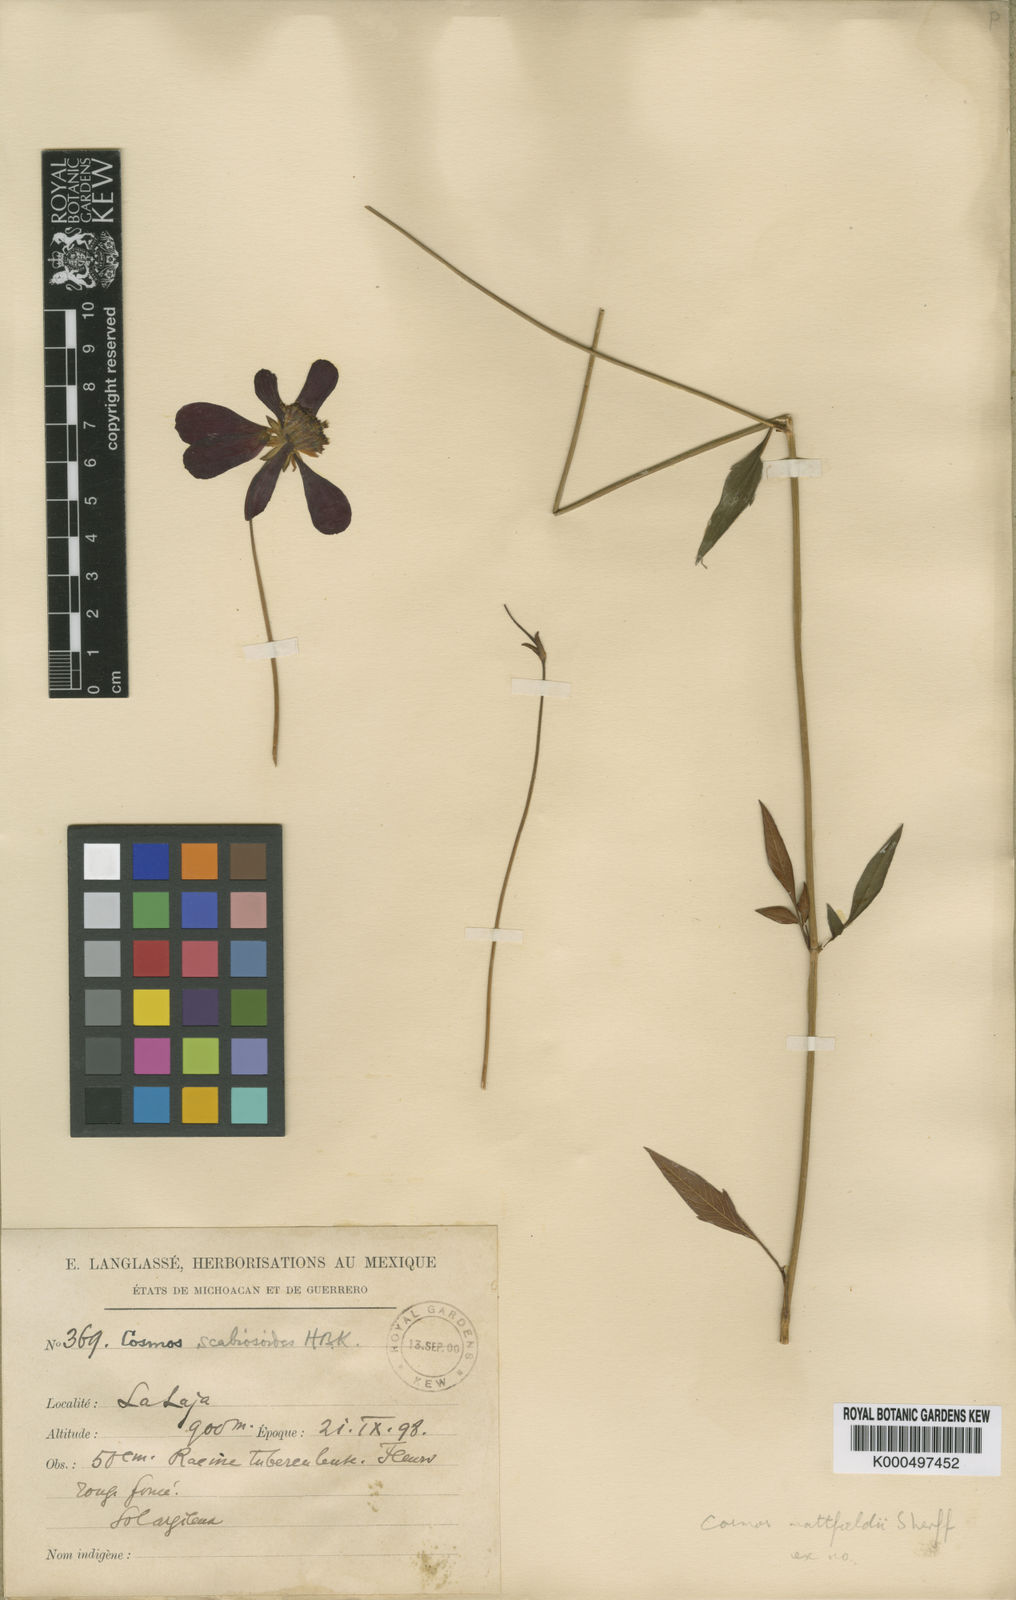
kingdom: Plantae
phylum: Tracheophyta
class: Magnoliopsida
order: Asterales
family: Asteraceae
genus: Cosmos
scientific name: Cosmos mattfeldii
